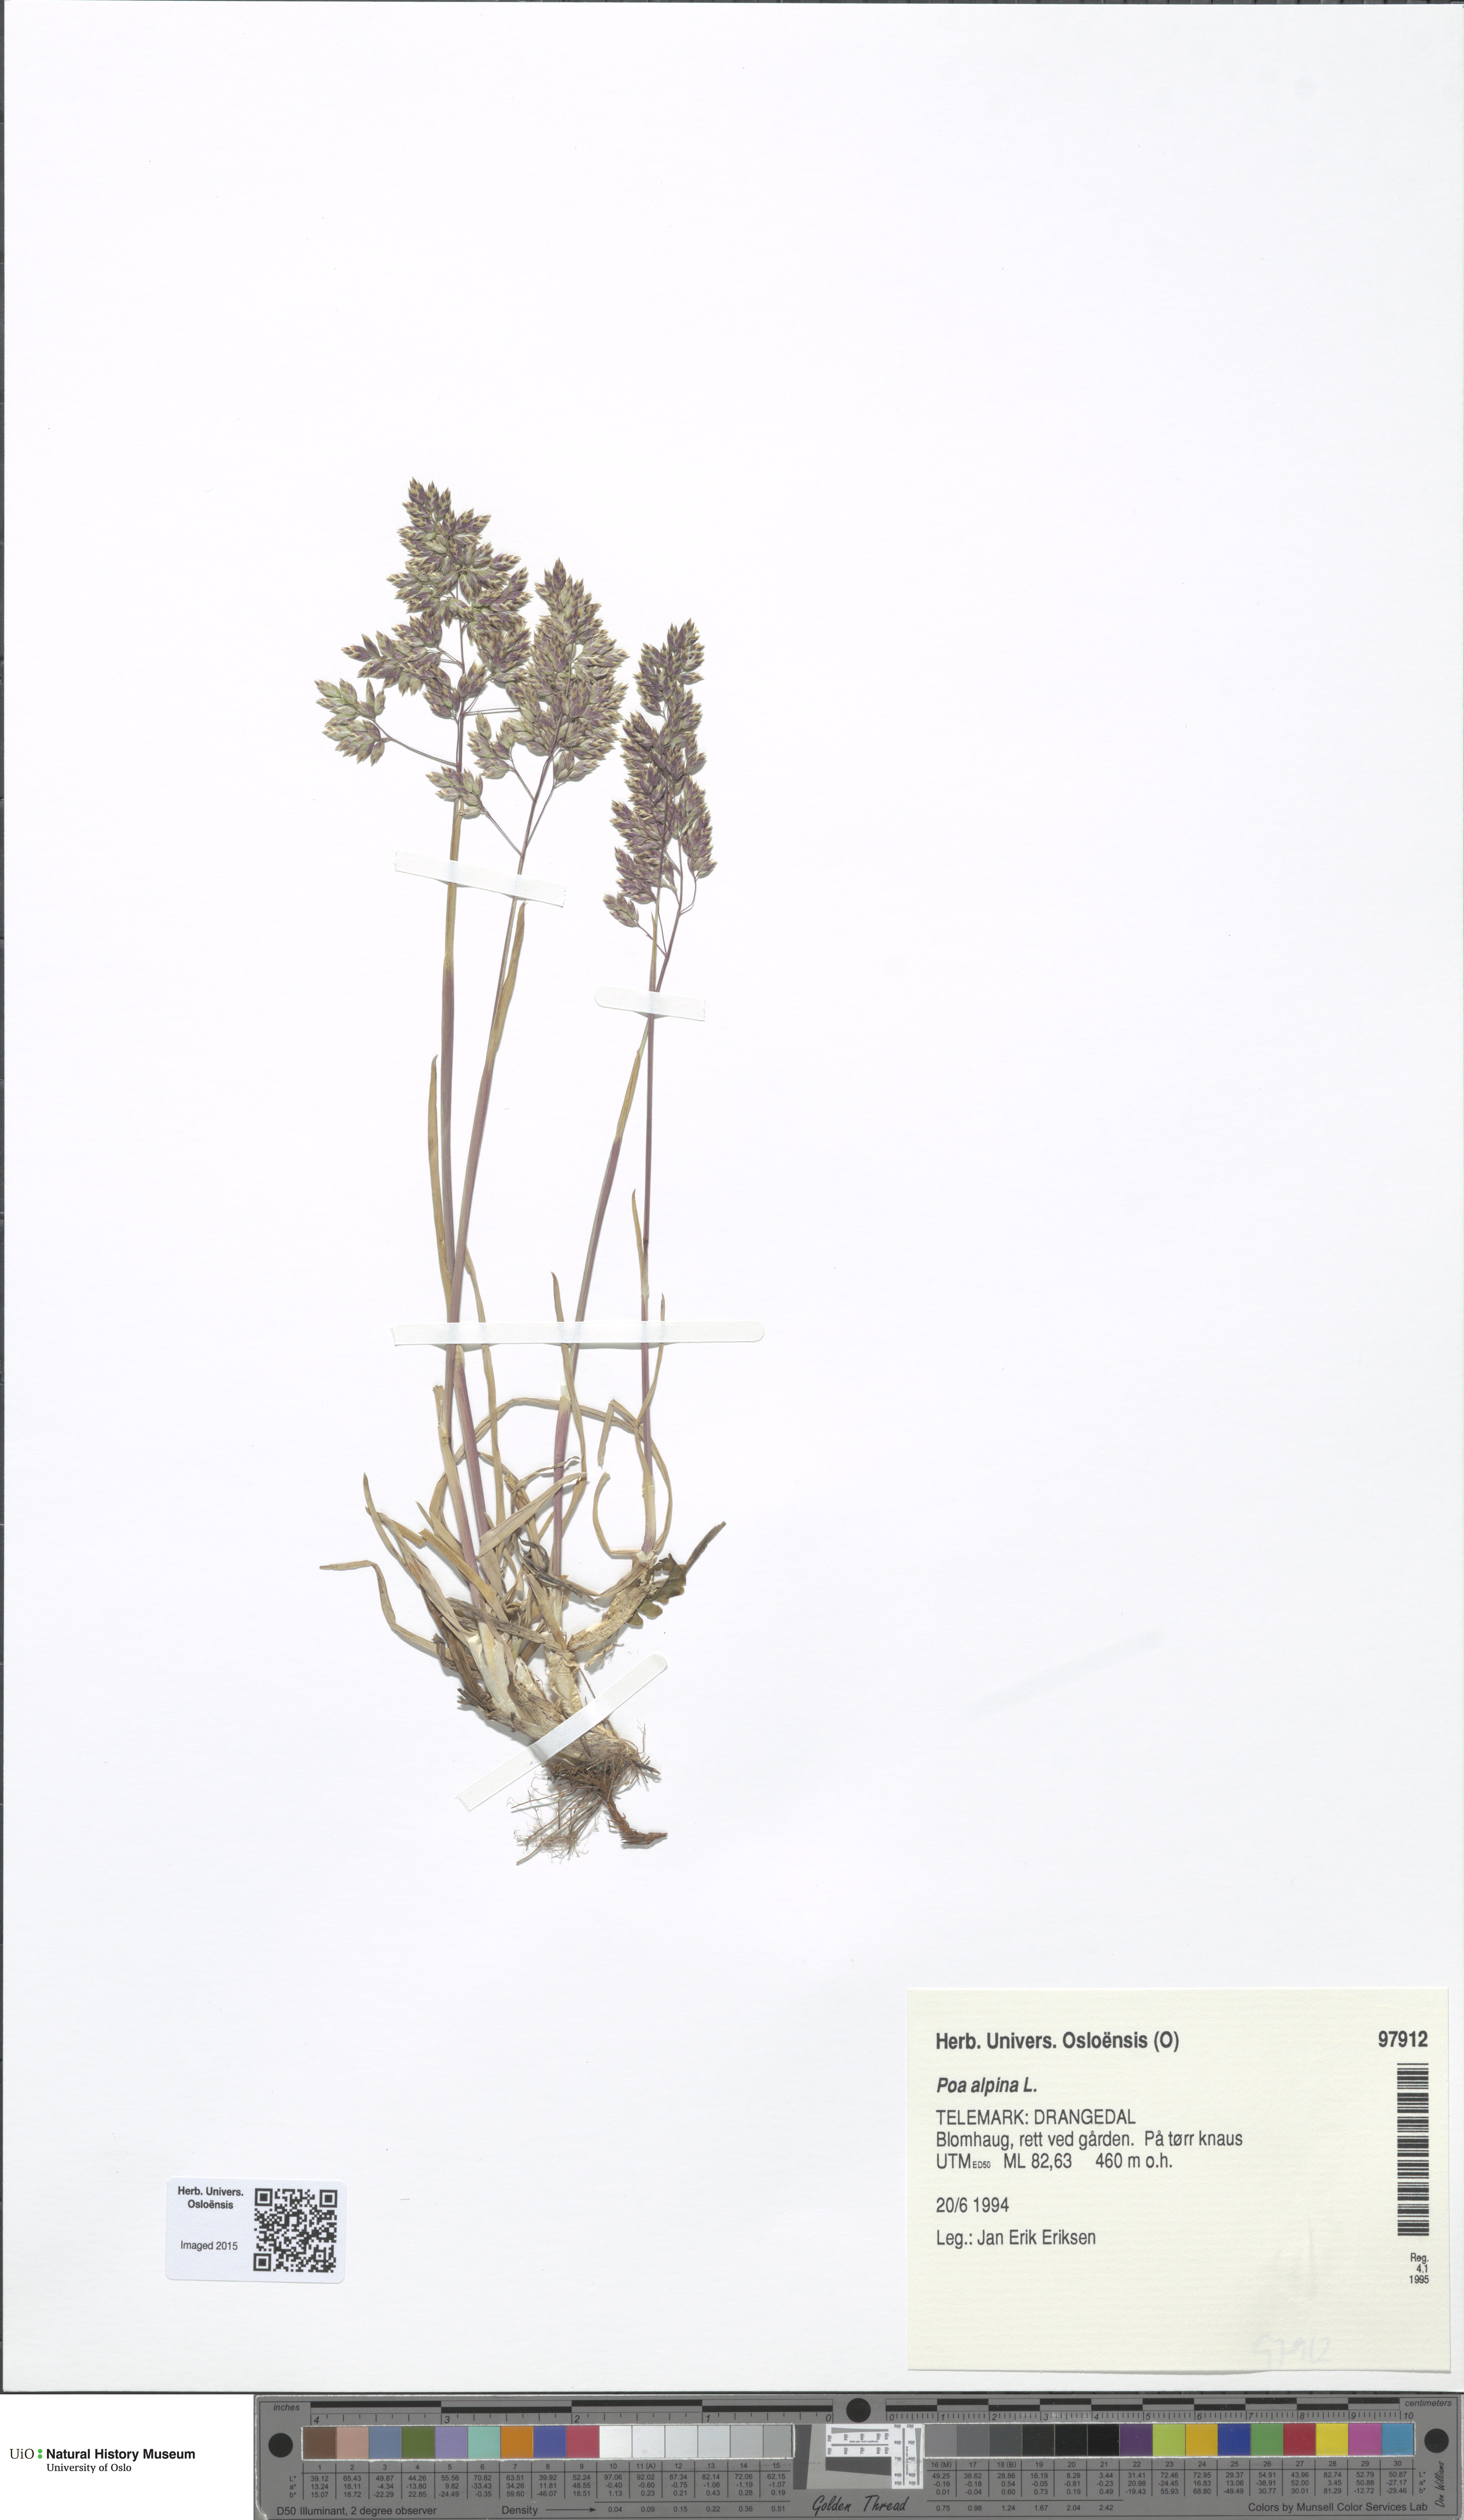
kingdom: Plantae
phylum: Tracheophyta
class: Liliopsida
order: Poales
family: Poaceae
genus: Poa
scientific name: Poa alpina
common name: Alpine bluegrass
